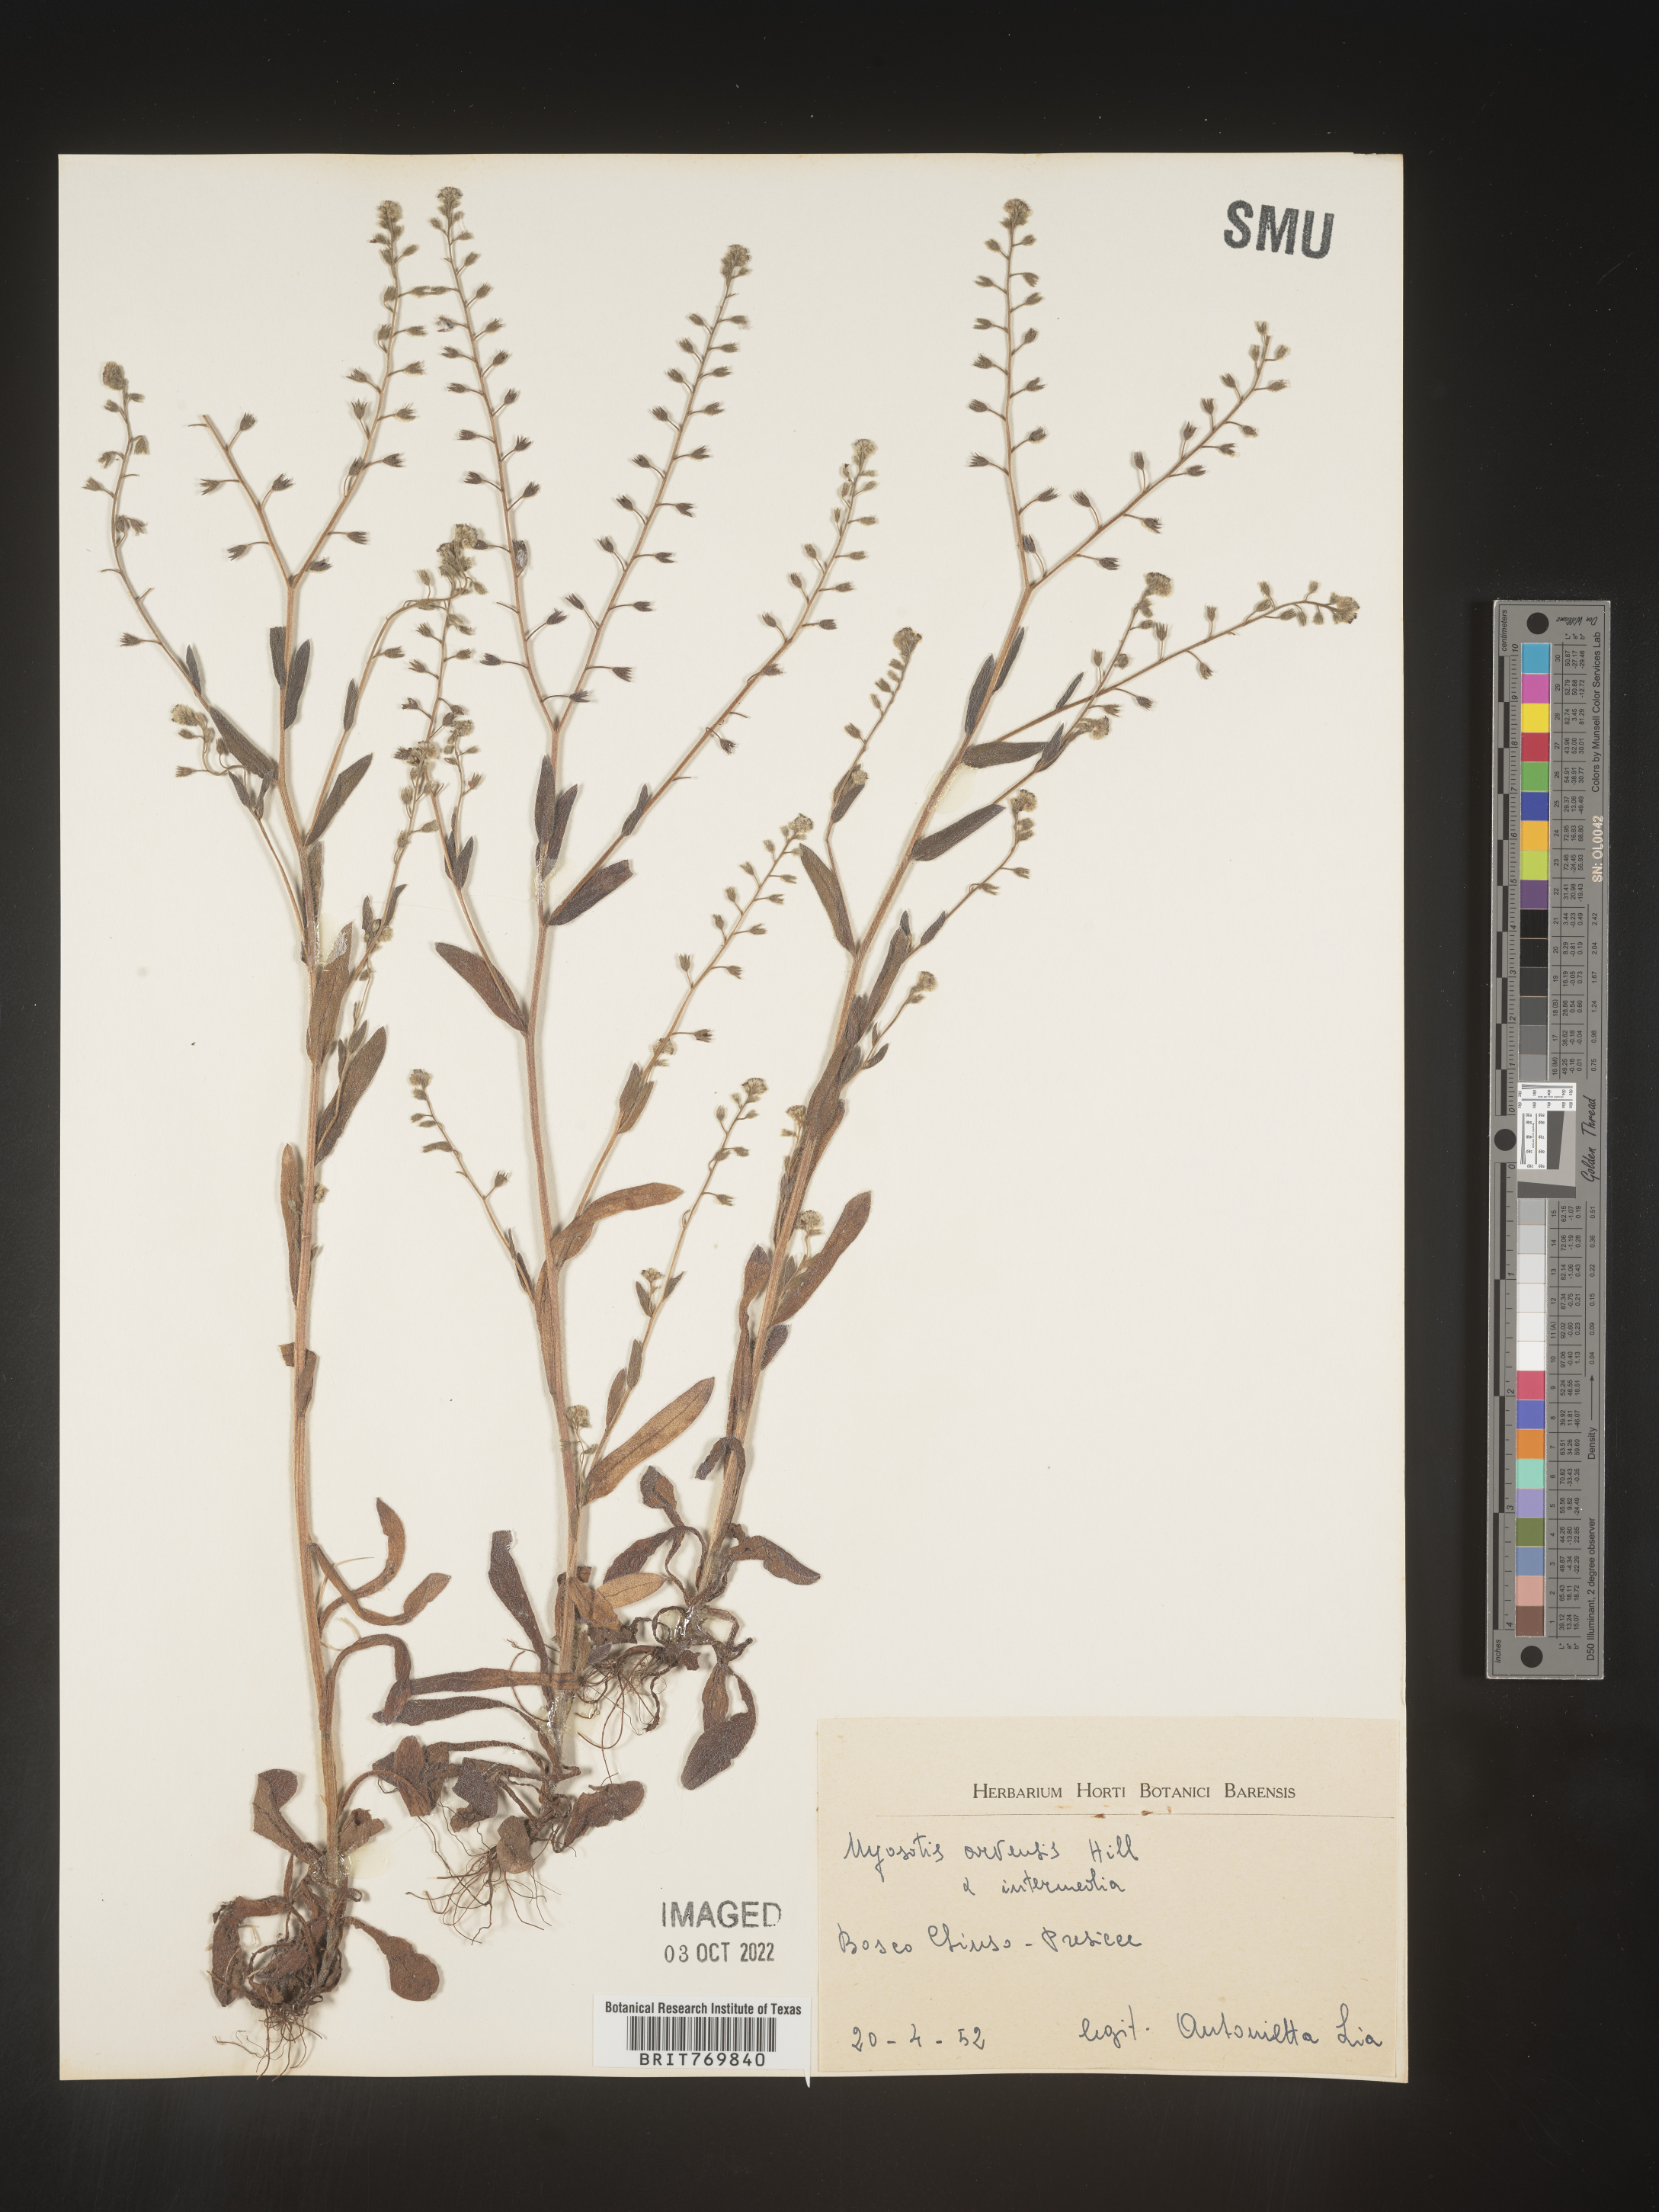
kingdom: Plantae
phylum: Tracheophyta
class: Magnoliopsida
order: Boraginales
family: Boraginaceae
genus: Myosotis
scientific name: Myosotis
